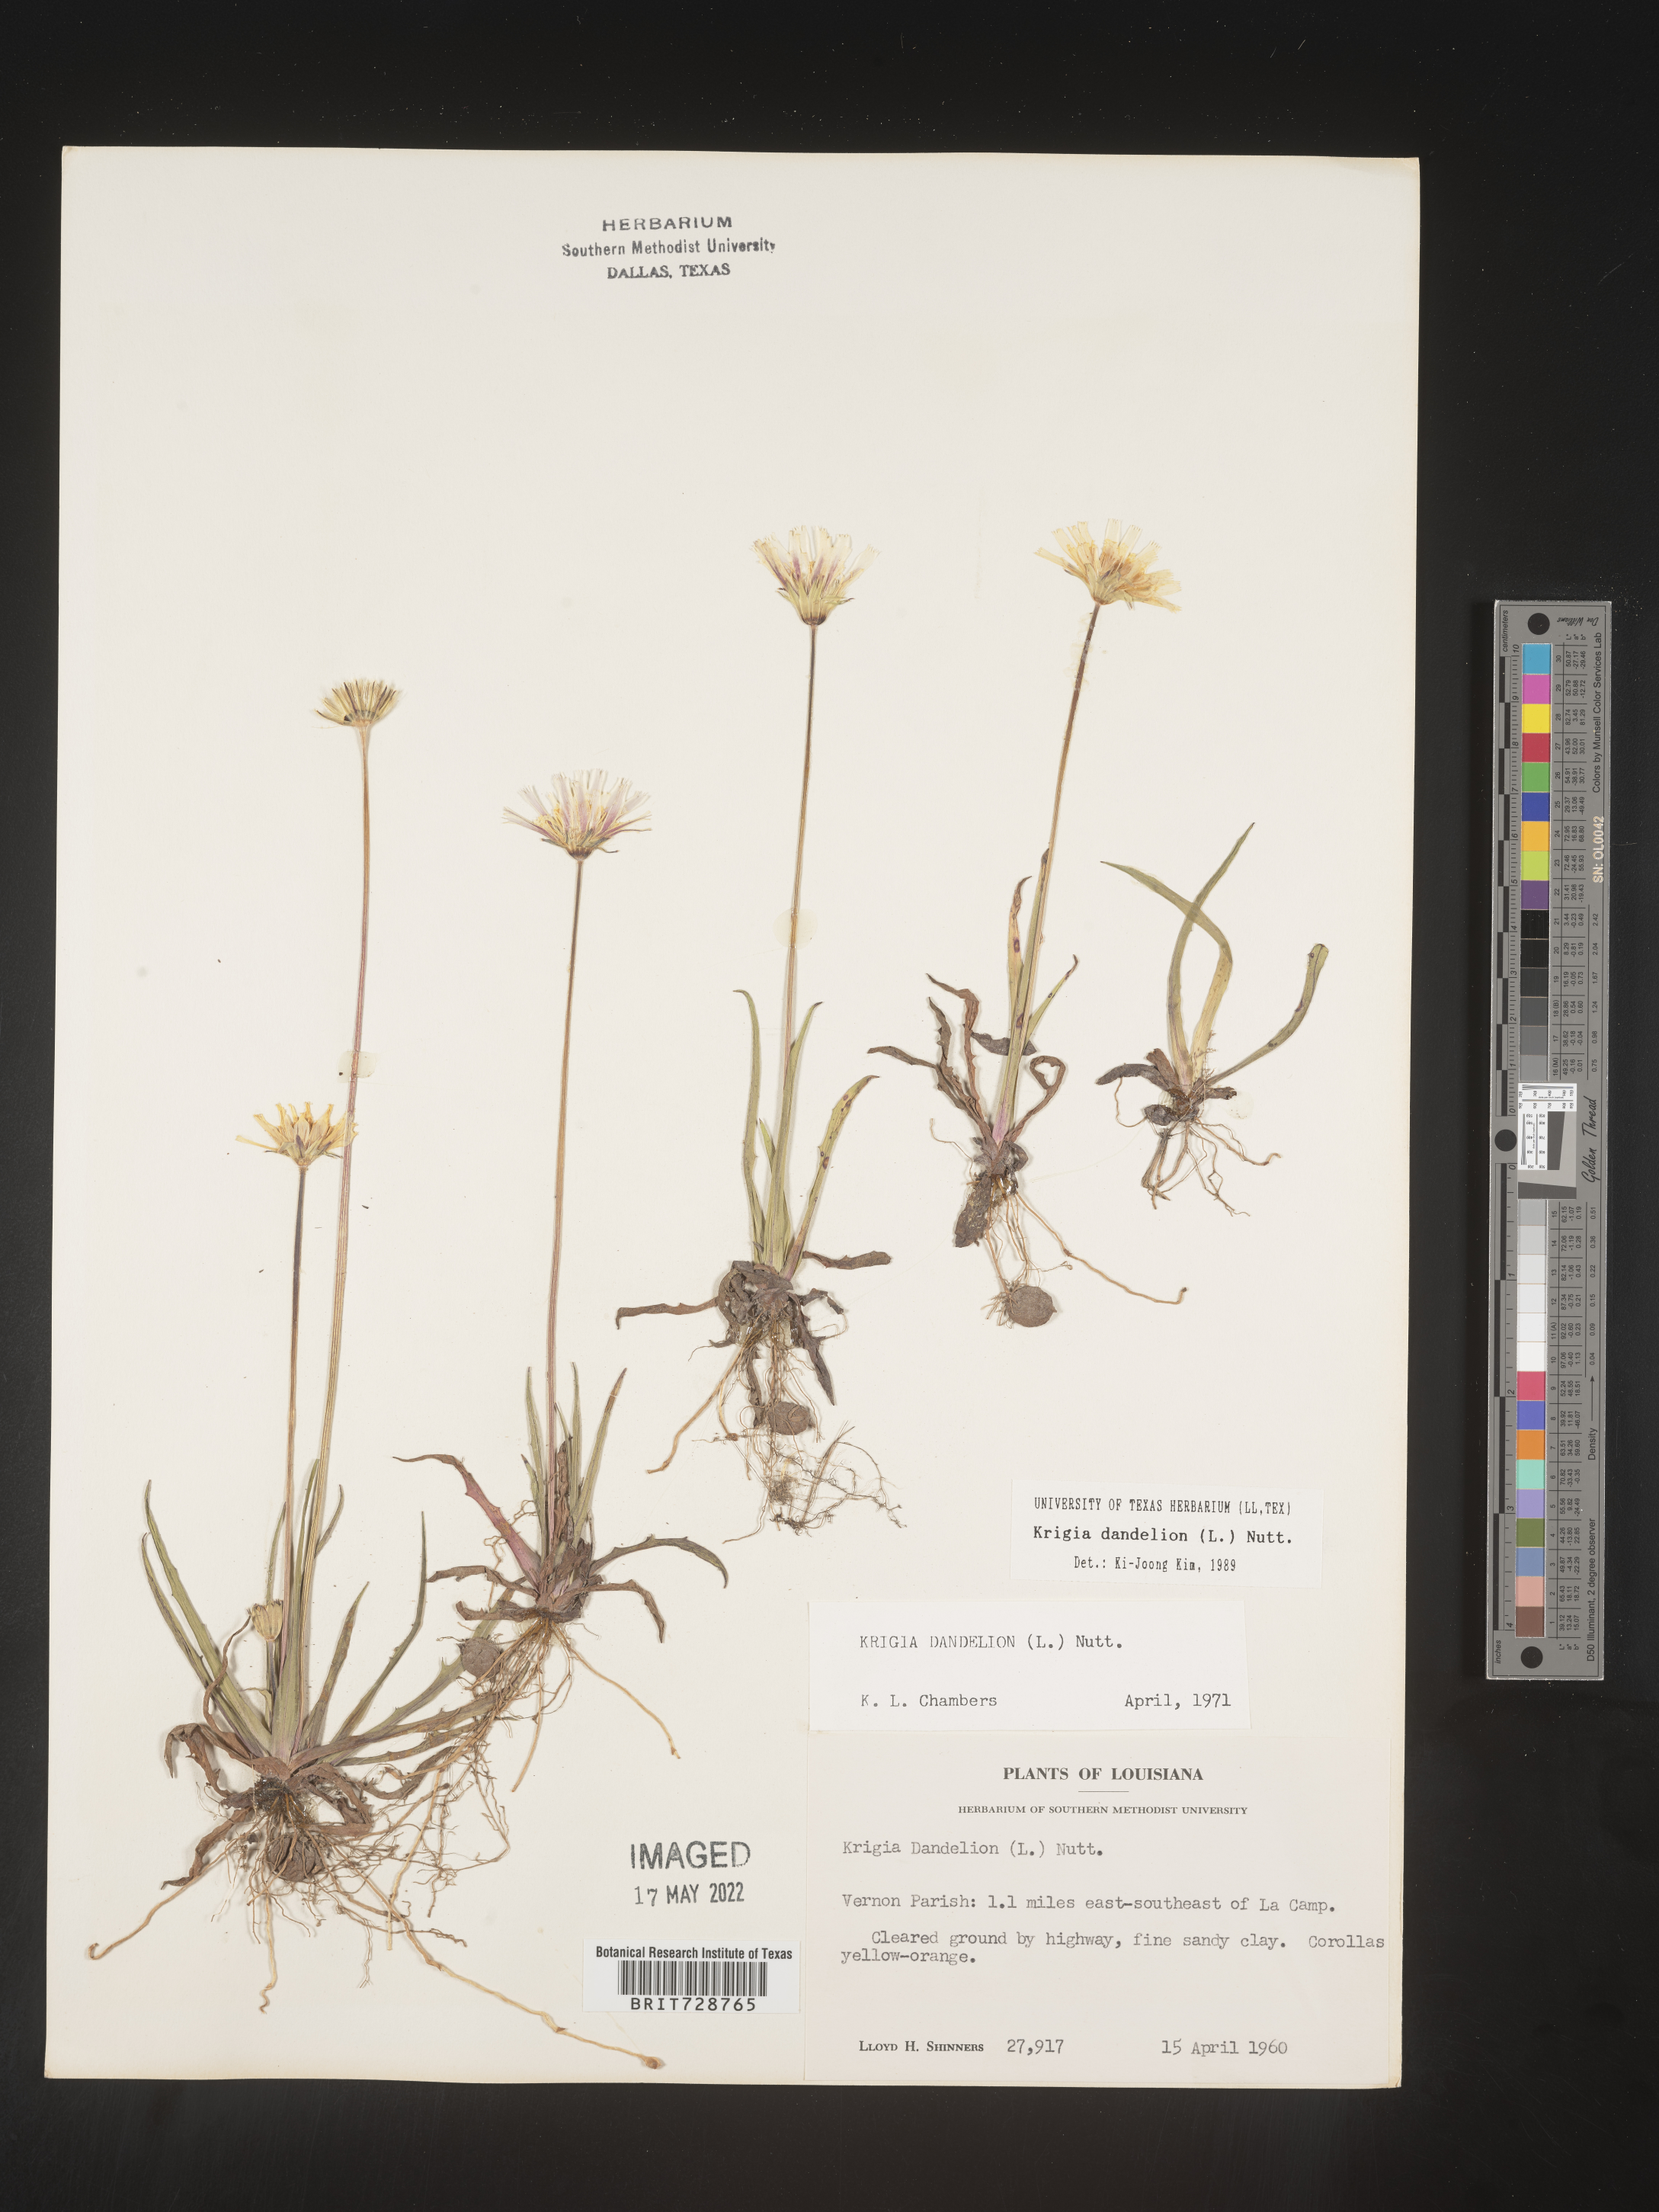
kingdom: Plantae
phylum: Tracheophyta
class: Magnoliopsida
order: Asterales
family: Asteraceae
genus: Krigia
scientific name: Krigia dandelion
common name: Colonial dwarf-dandelion
